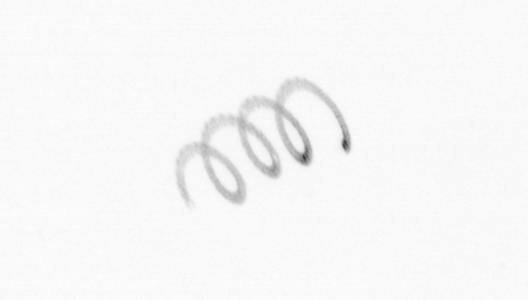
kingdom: Chromista
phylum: Ochrophyta
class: Bacillariophyceae
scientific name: Bacillariophyceae
